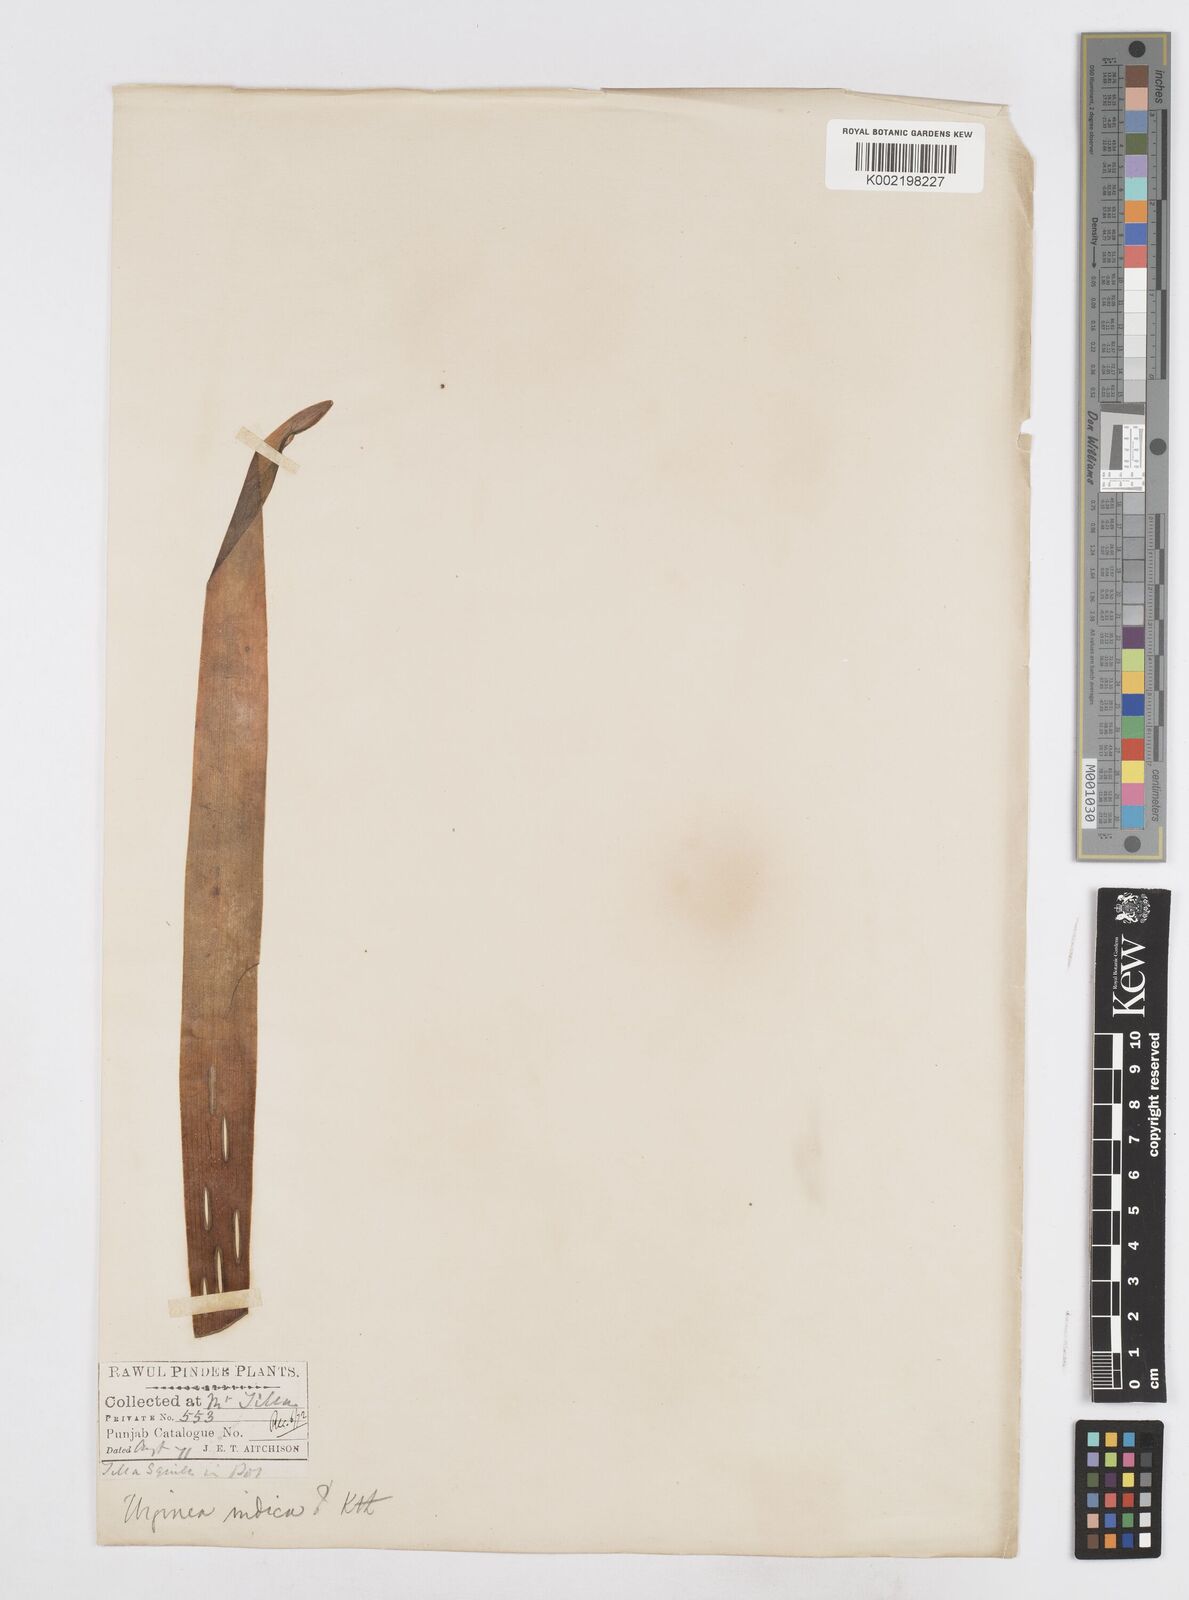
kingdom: Plantae
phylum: Tracheophyta
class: Liliopsida
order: Asparagales
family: Asparagaceae
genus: Drimia
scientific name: Drimia indica
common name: Indian-squill
